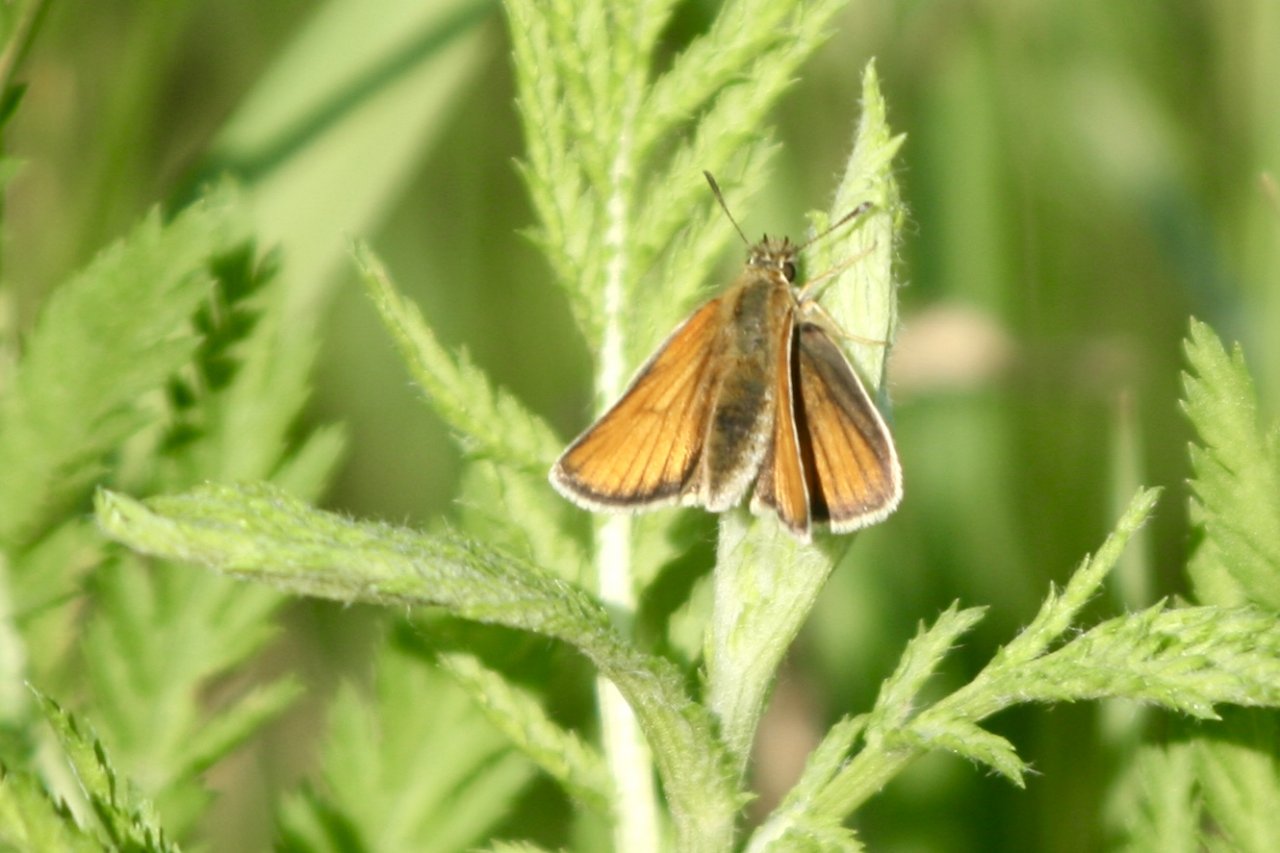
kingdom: Animalia
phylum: Arthropoda
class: Insecta
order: Lepidoptera
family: Hesperiidae
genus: Thymelicus
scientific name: Thymelicus lineola
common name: European Skipper
